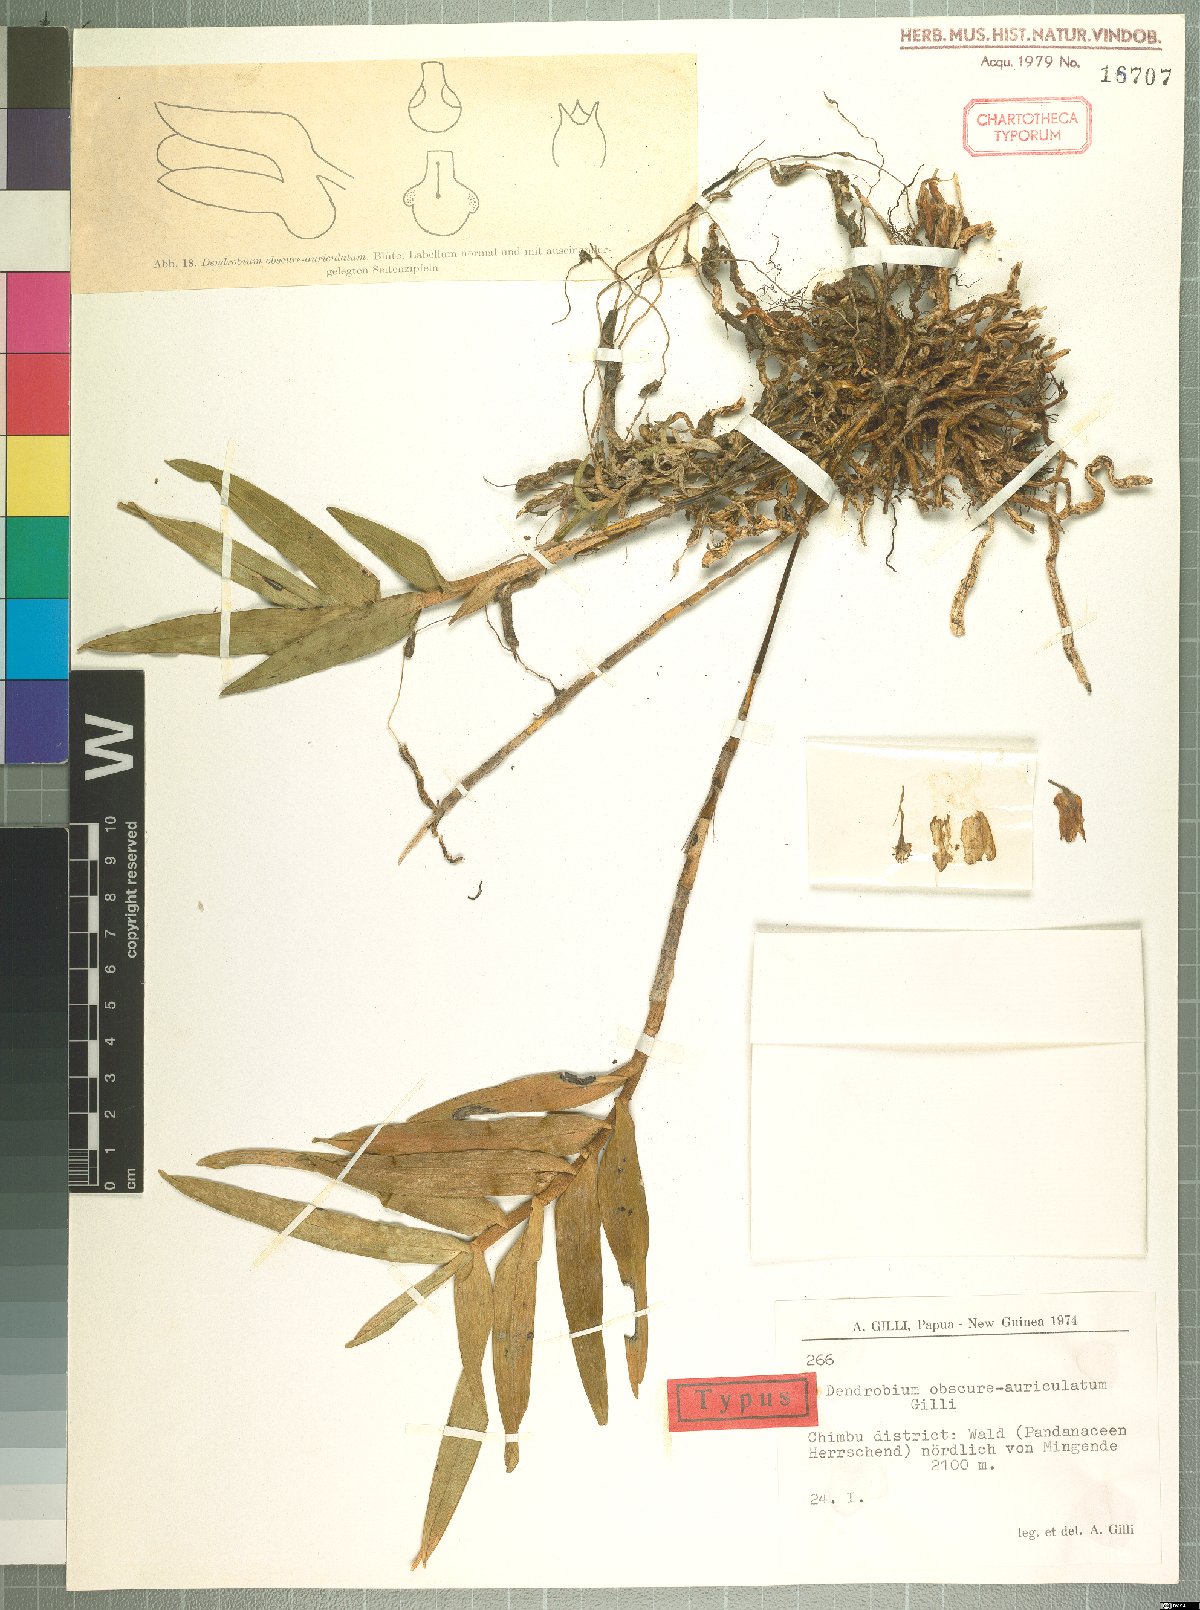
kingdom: Plantae
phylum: Tracheophyta
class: Liliopsida
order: Asparagales
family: Orchidaceae
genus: Dendrobium
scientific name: Dendrobium obscure-auriculatum
